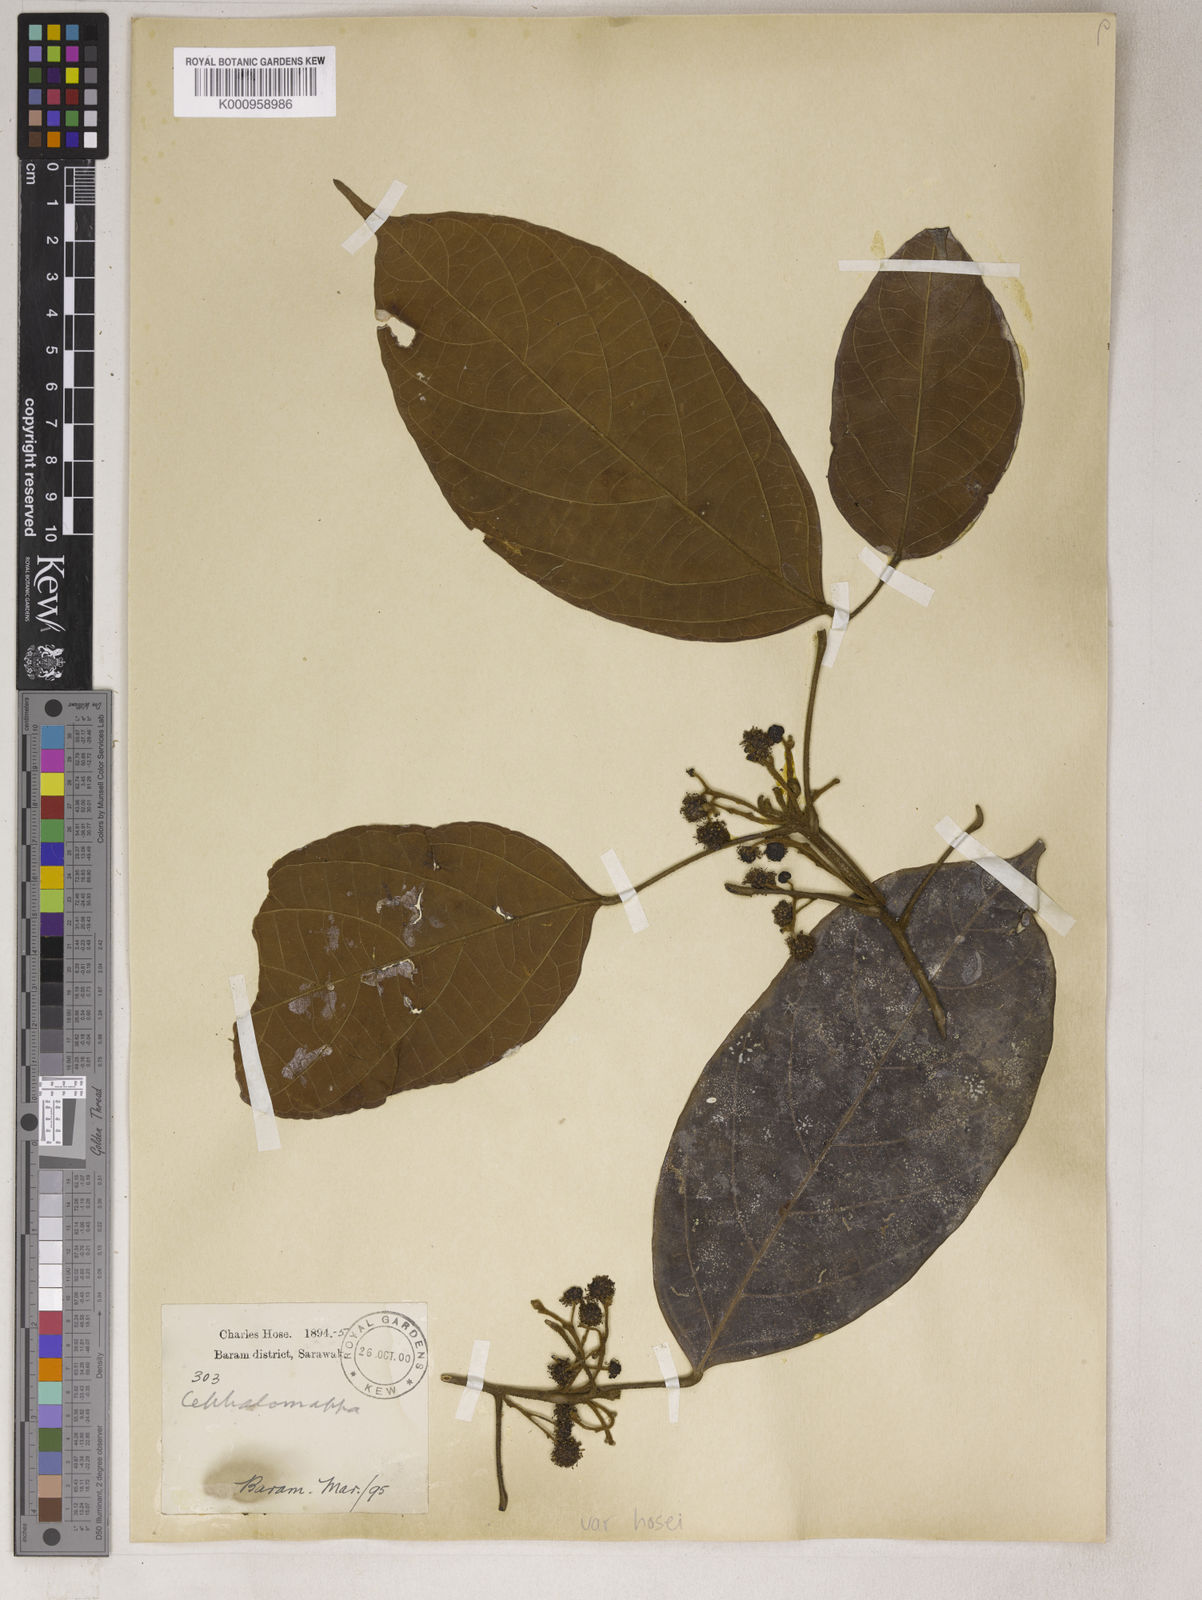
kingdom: Plantae
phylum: Tracheophyta
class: Magnoliopsida
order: Malpighiales
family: Euphorbiaceae
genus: Cephalomappa
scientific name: Cephalomappa beccariana
